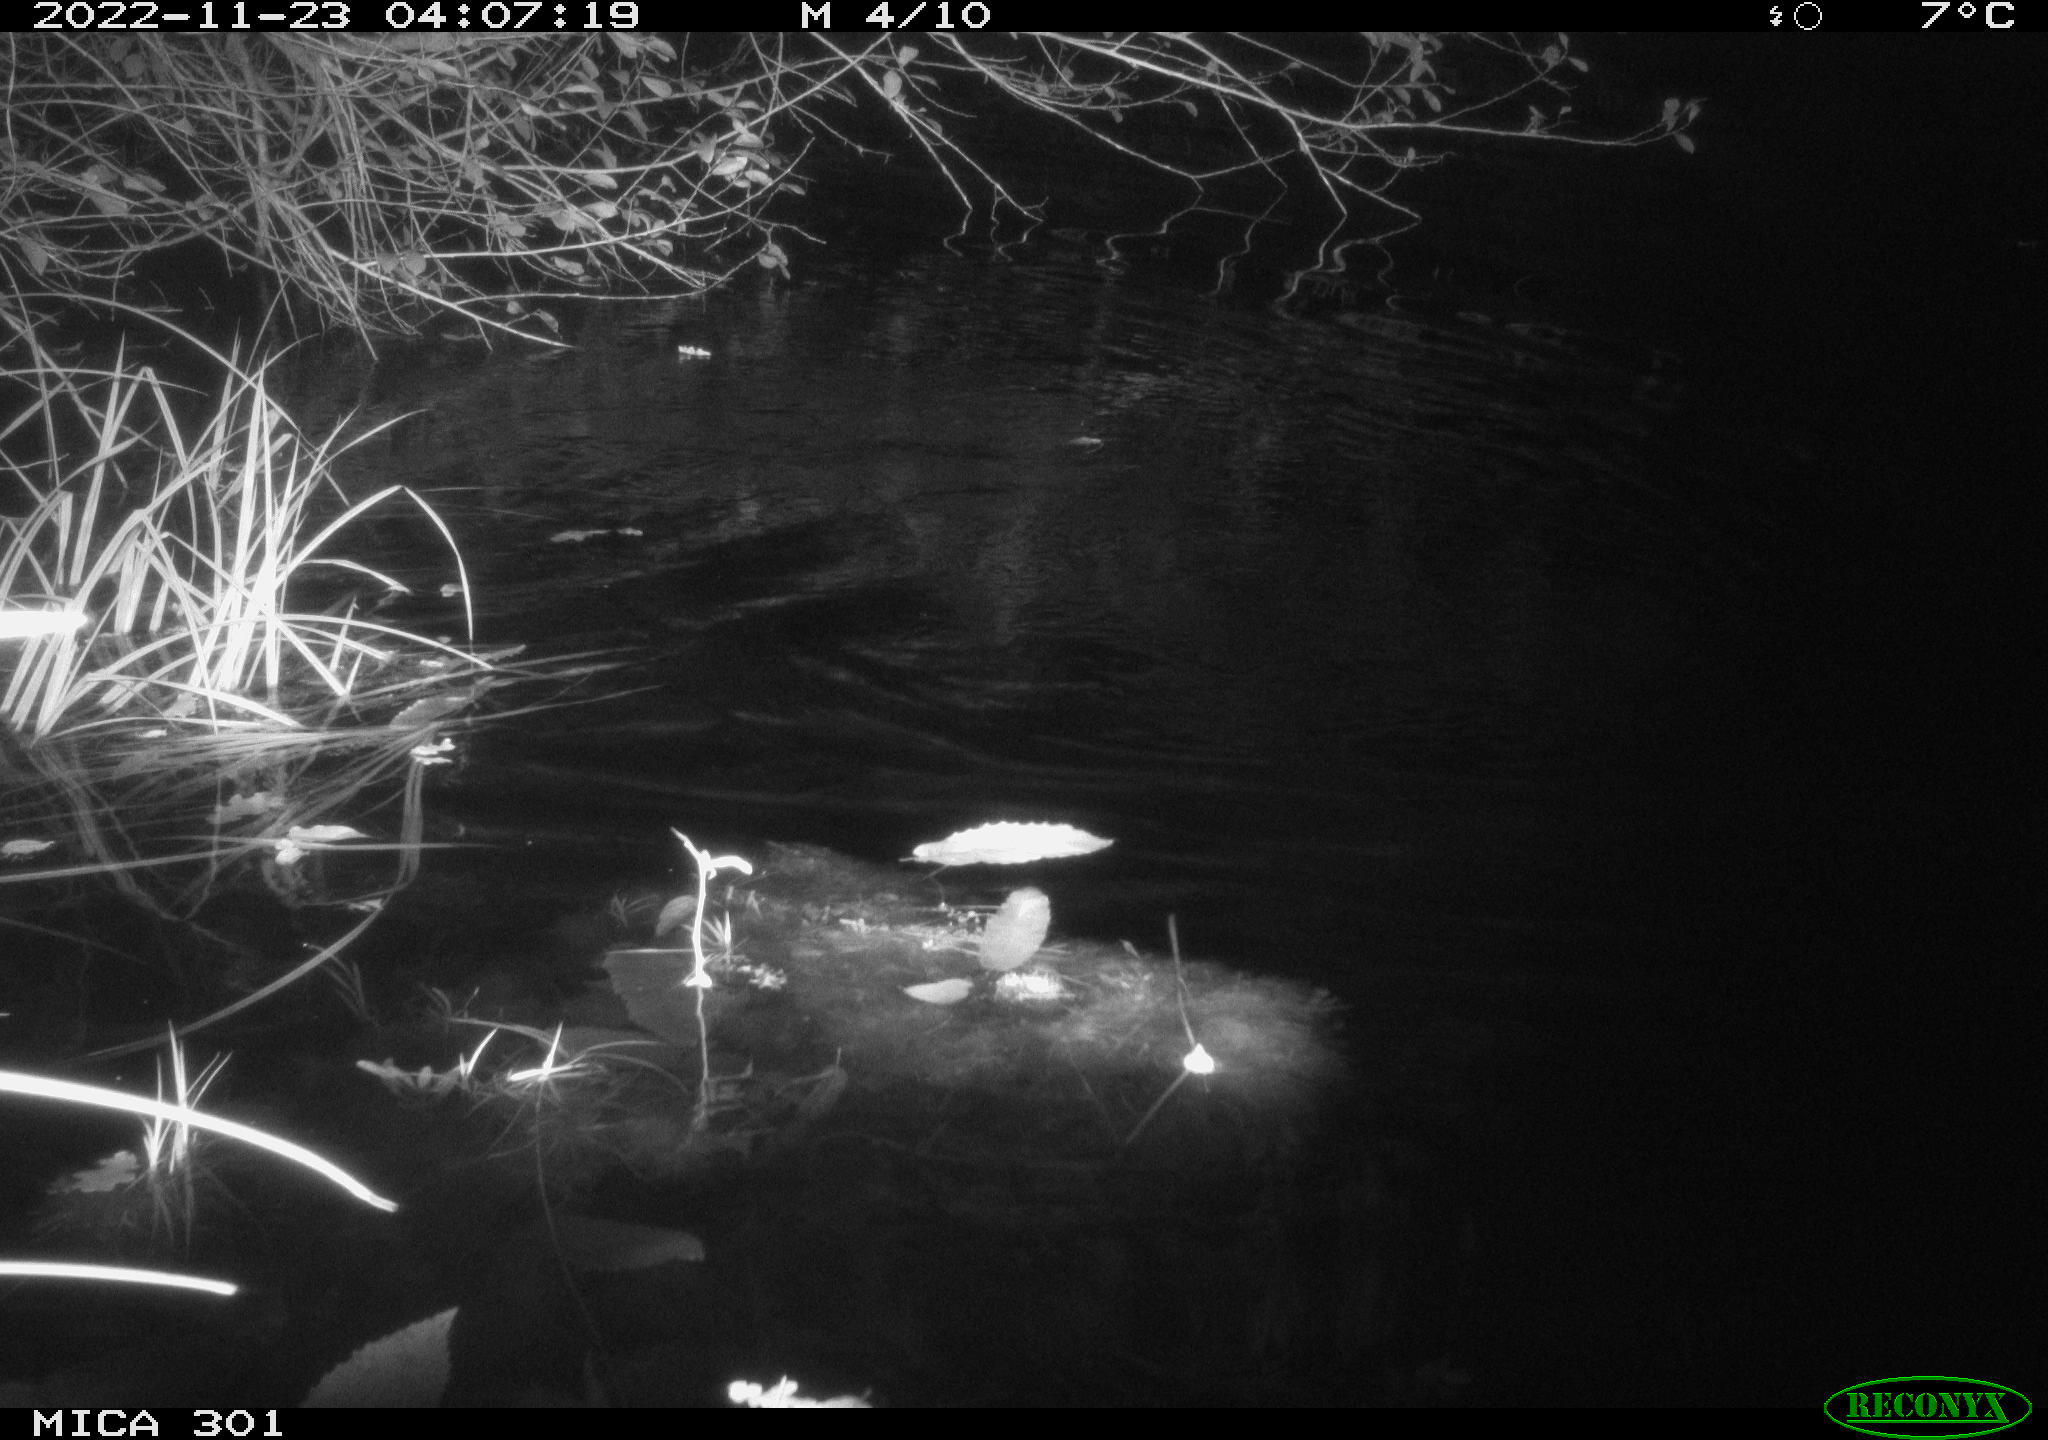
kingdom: Animalia
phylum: Chordata
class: Mammalia
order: Rodentia
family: Castoridae
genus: Castor
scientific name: Castor fiber
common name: Eurasian beaver
